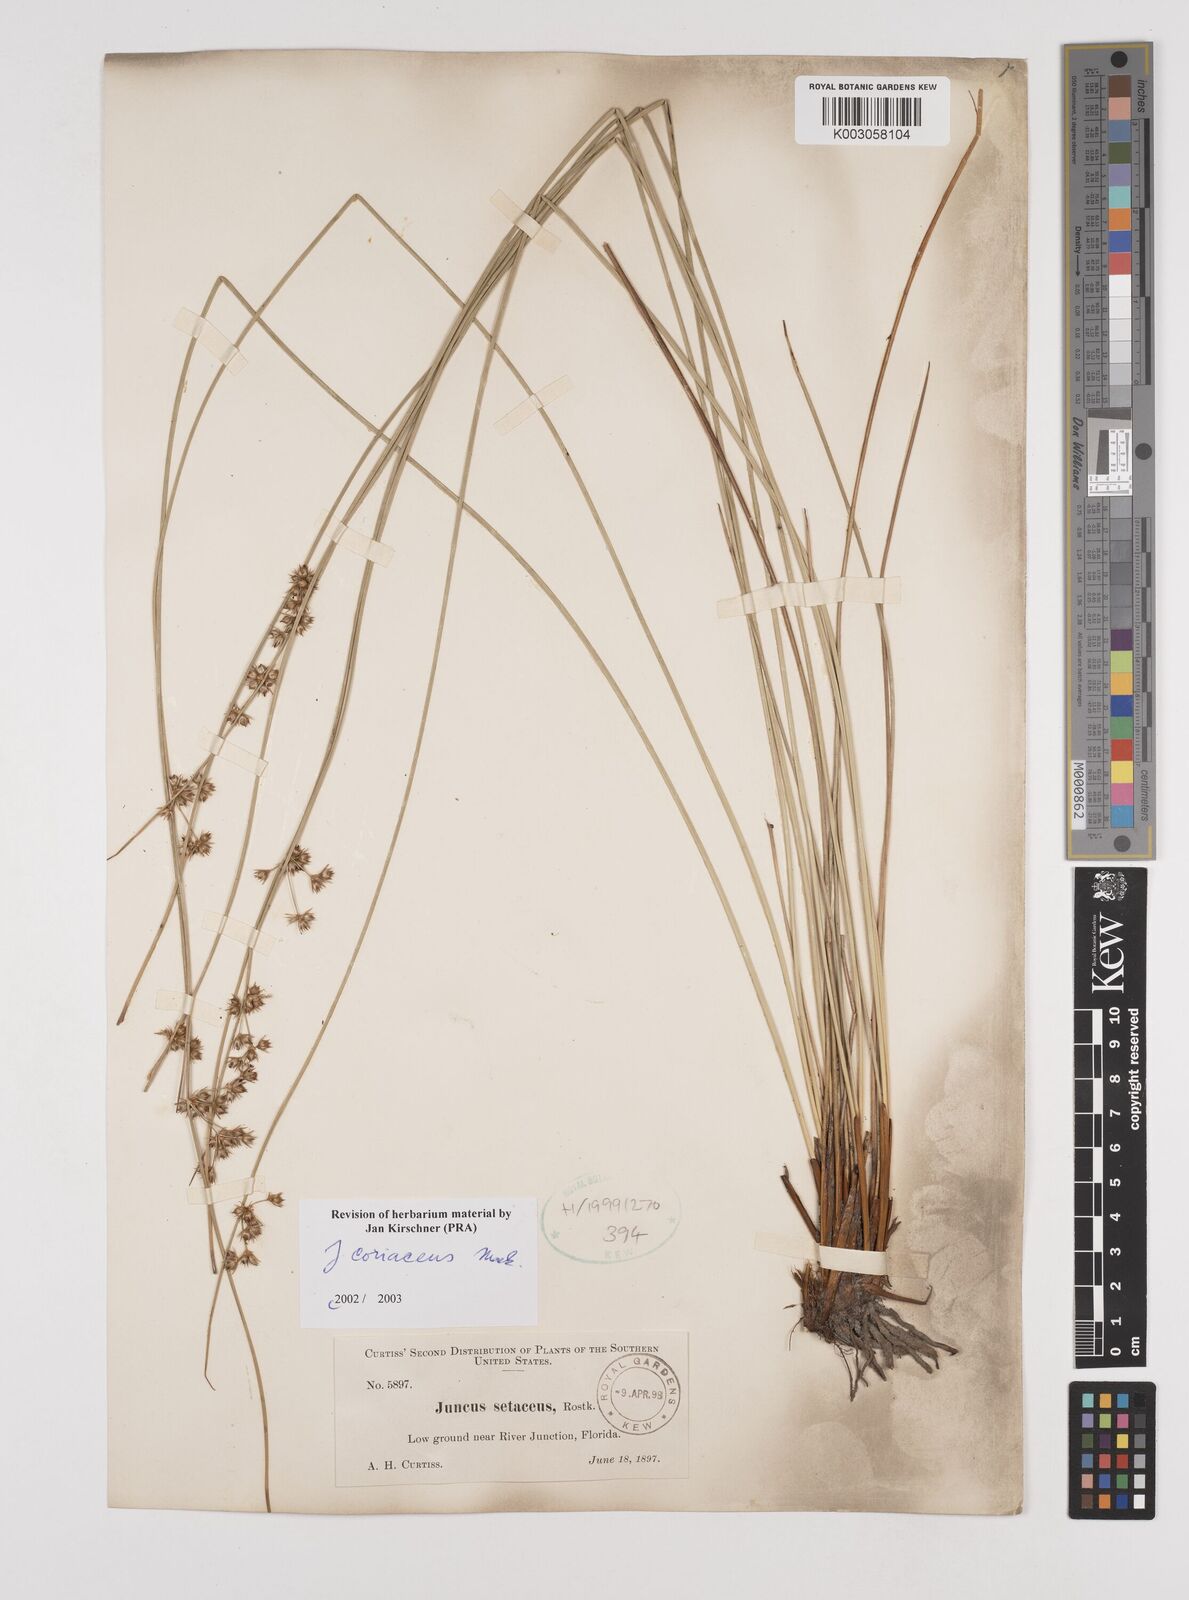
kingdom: Plantae
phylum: Tracheophyta
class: Liliopsida
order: Poales
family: Juncaceae
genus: Juncus
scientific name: Juncus coriaceus
